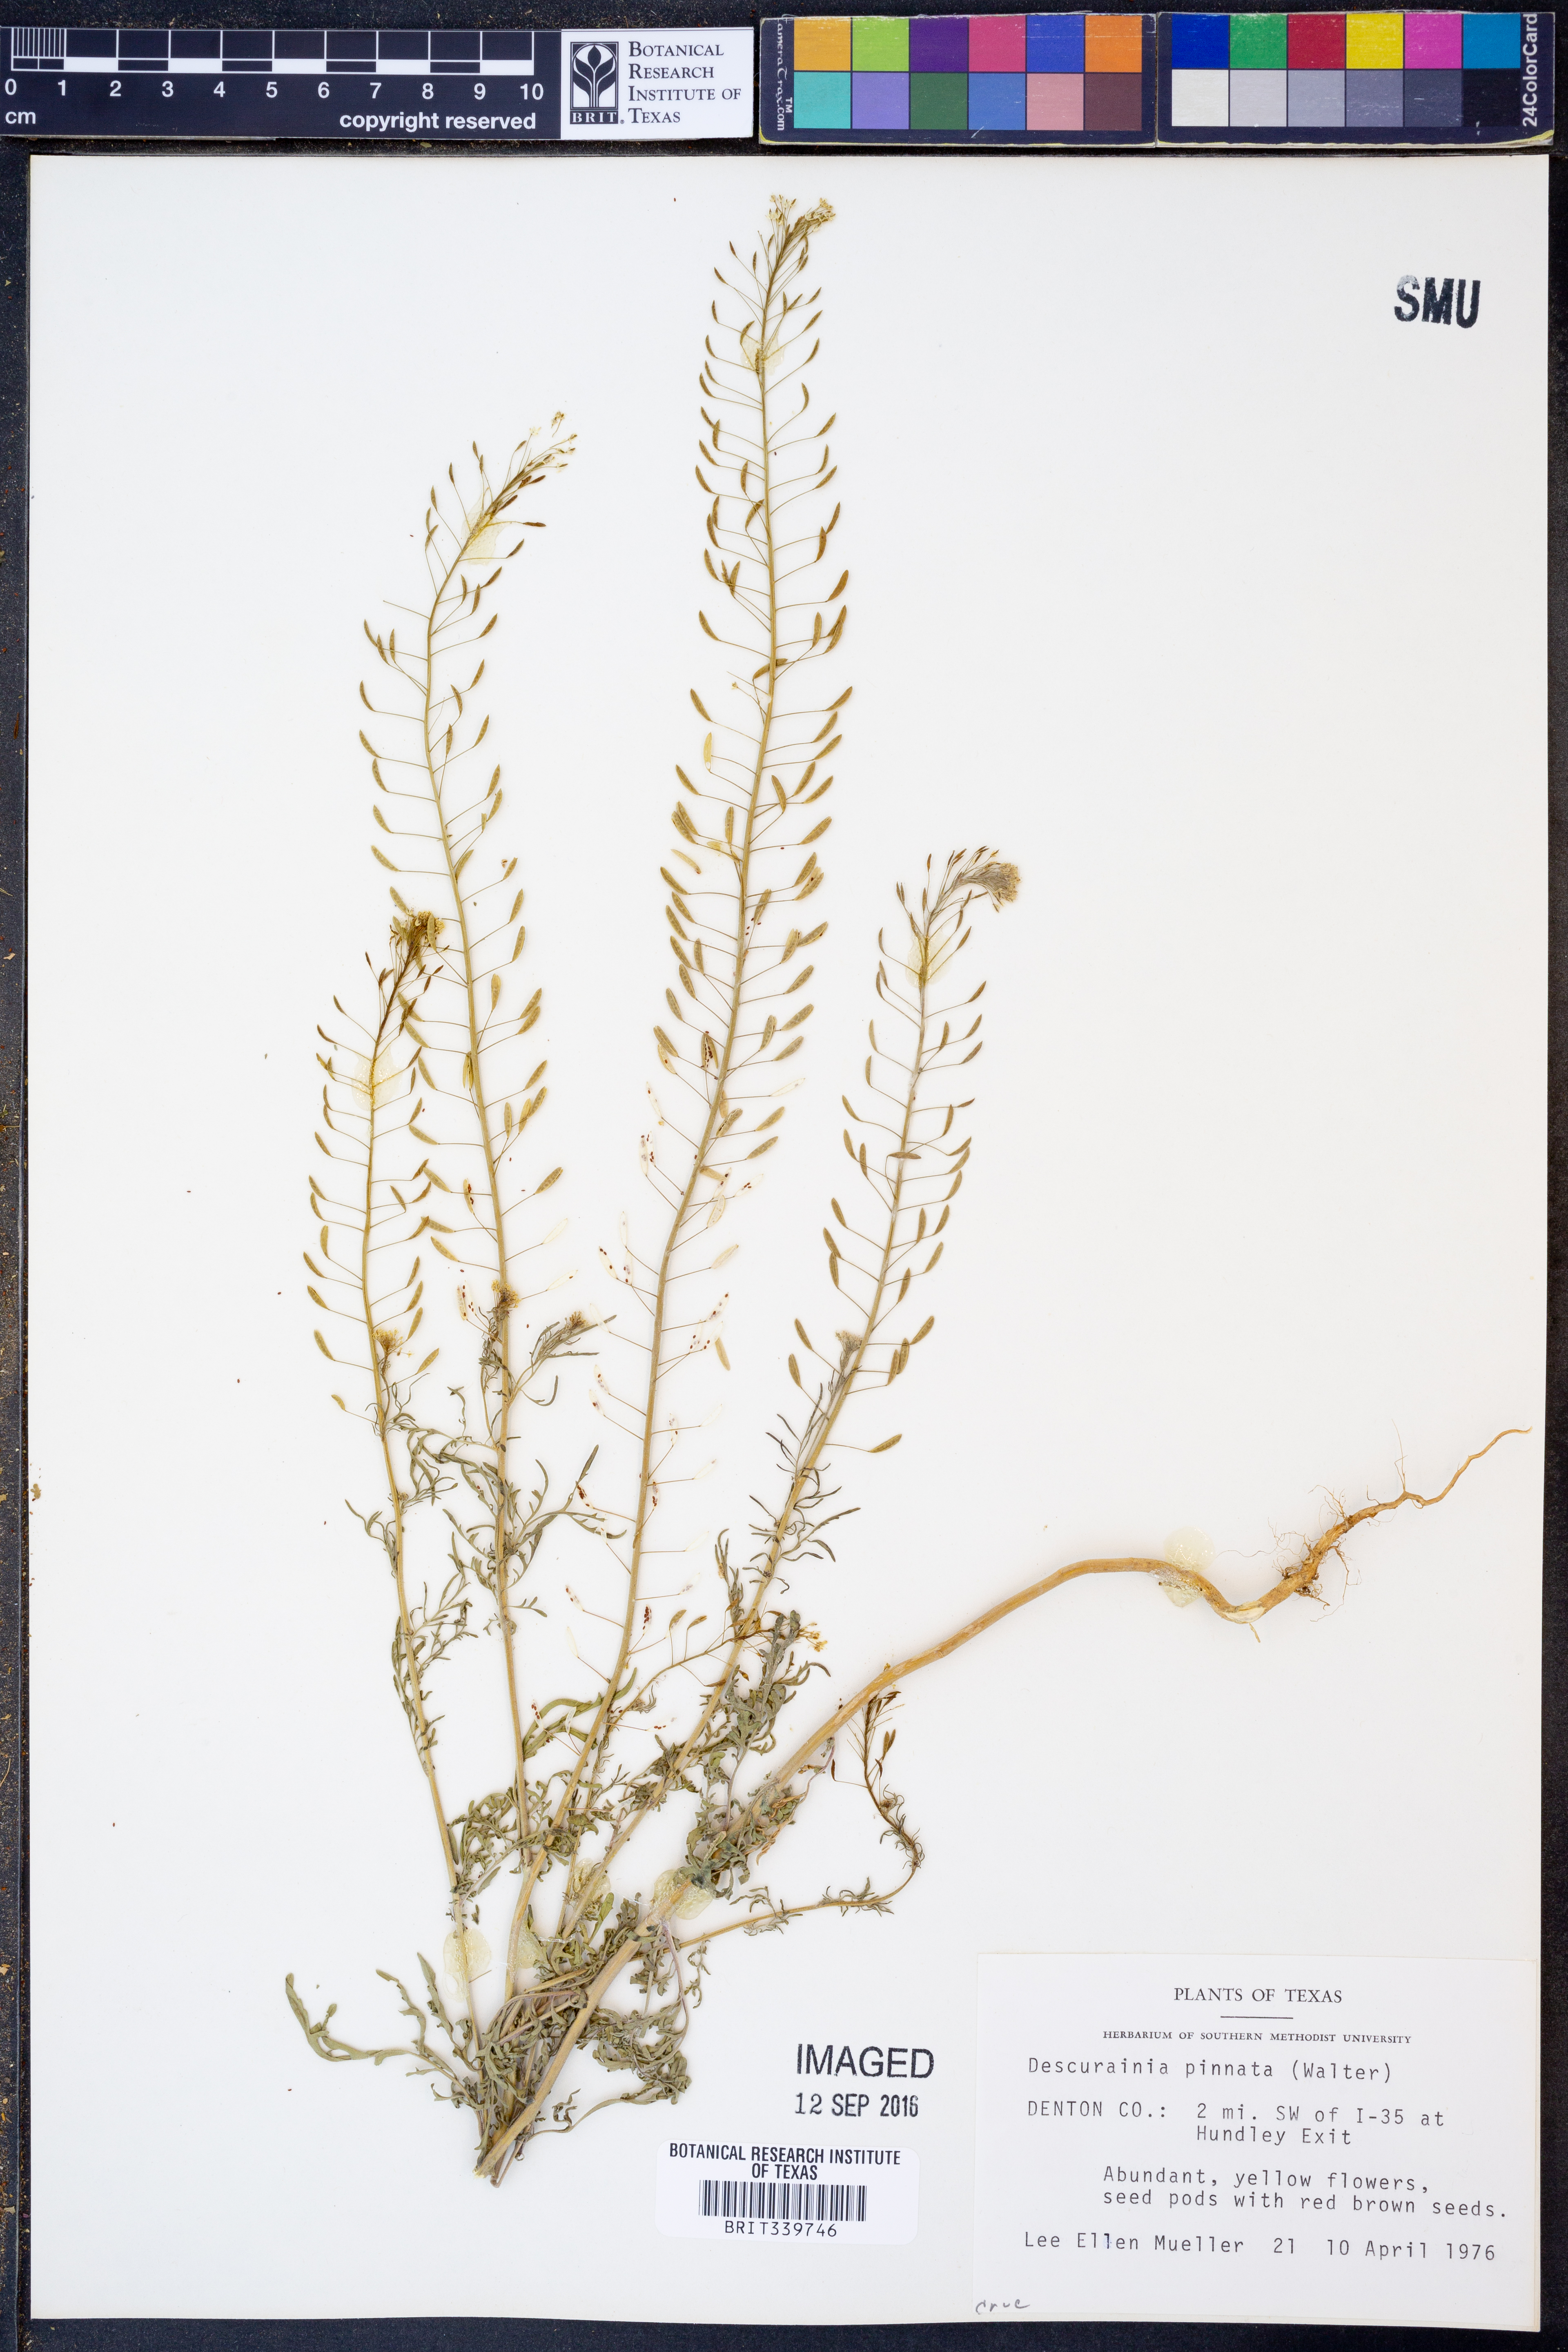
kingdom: Plantae
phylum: Tracheophyta
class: Magnoliopsida
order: Brassicales
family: Brassicaceae
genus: Descurainia
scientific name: Descurainia pinnata
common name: Western tansy mustard
